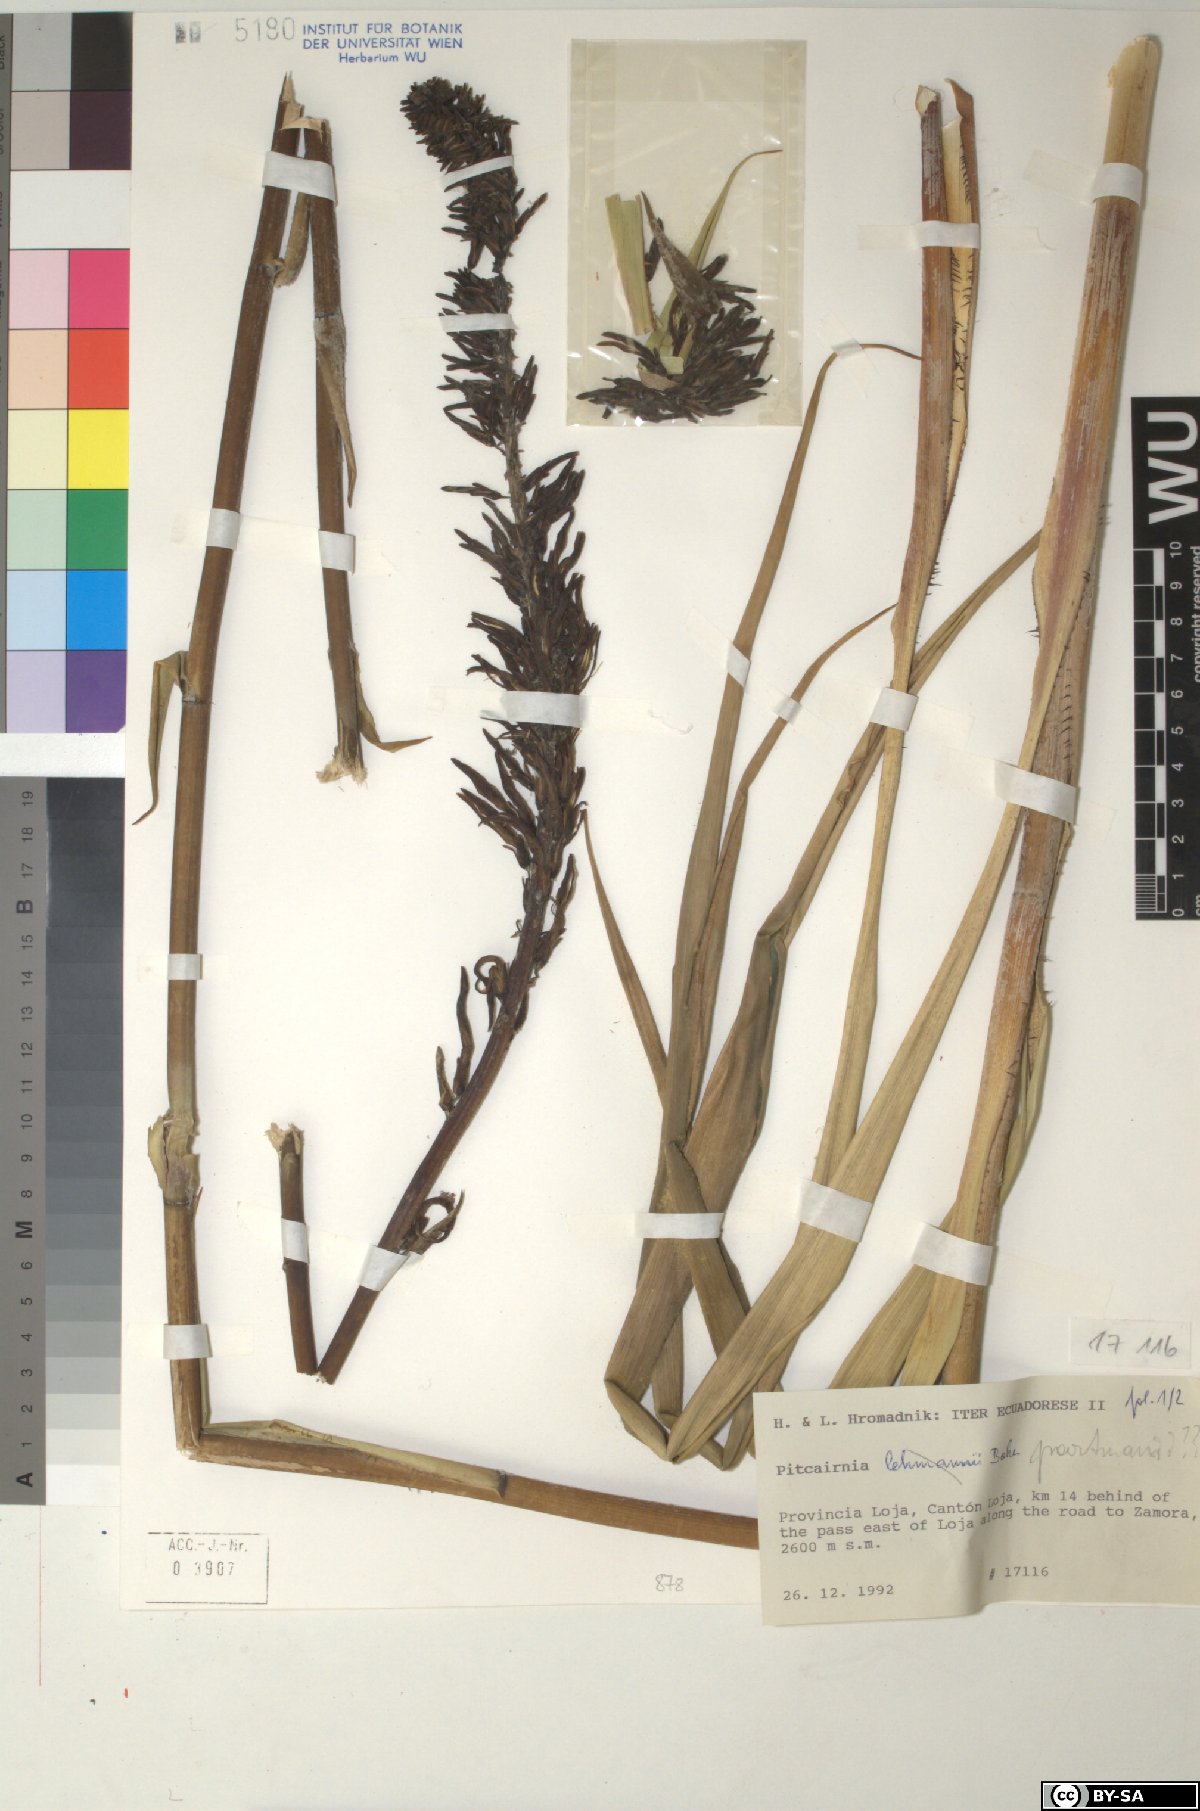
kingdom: Plantae
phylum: Tracheophyta
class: Liliopsida
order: Poales
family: Bromeliaceae
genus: Pitcairnia
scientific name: Pitcairnia poortmanii
